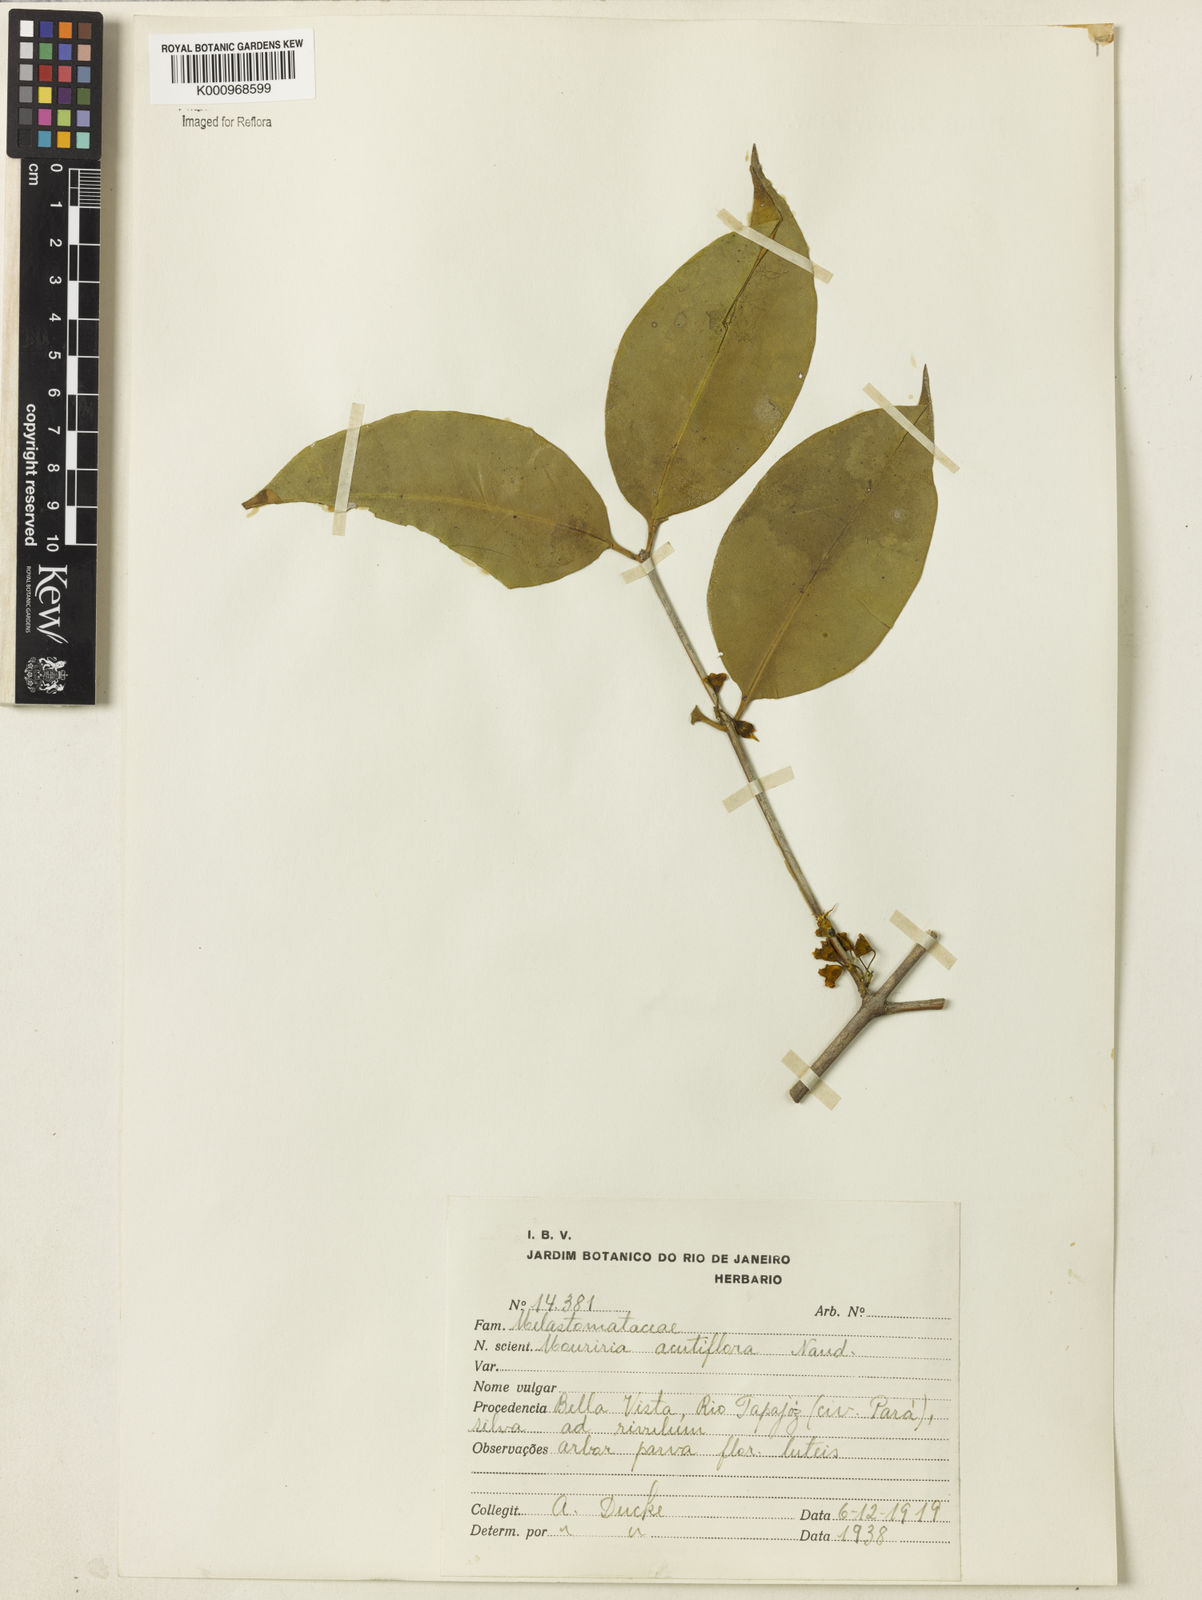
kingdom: Plantae
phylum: Tracheophyta
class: Magnoliopsida
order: Myrtales
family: Melastomataceae
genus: Mouriri
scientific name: Mouriri acutiflora
